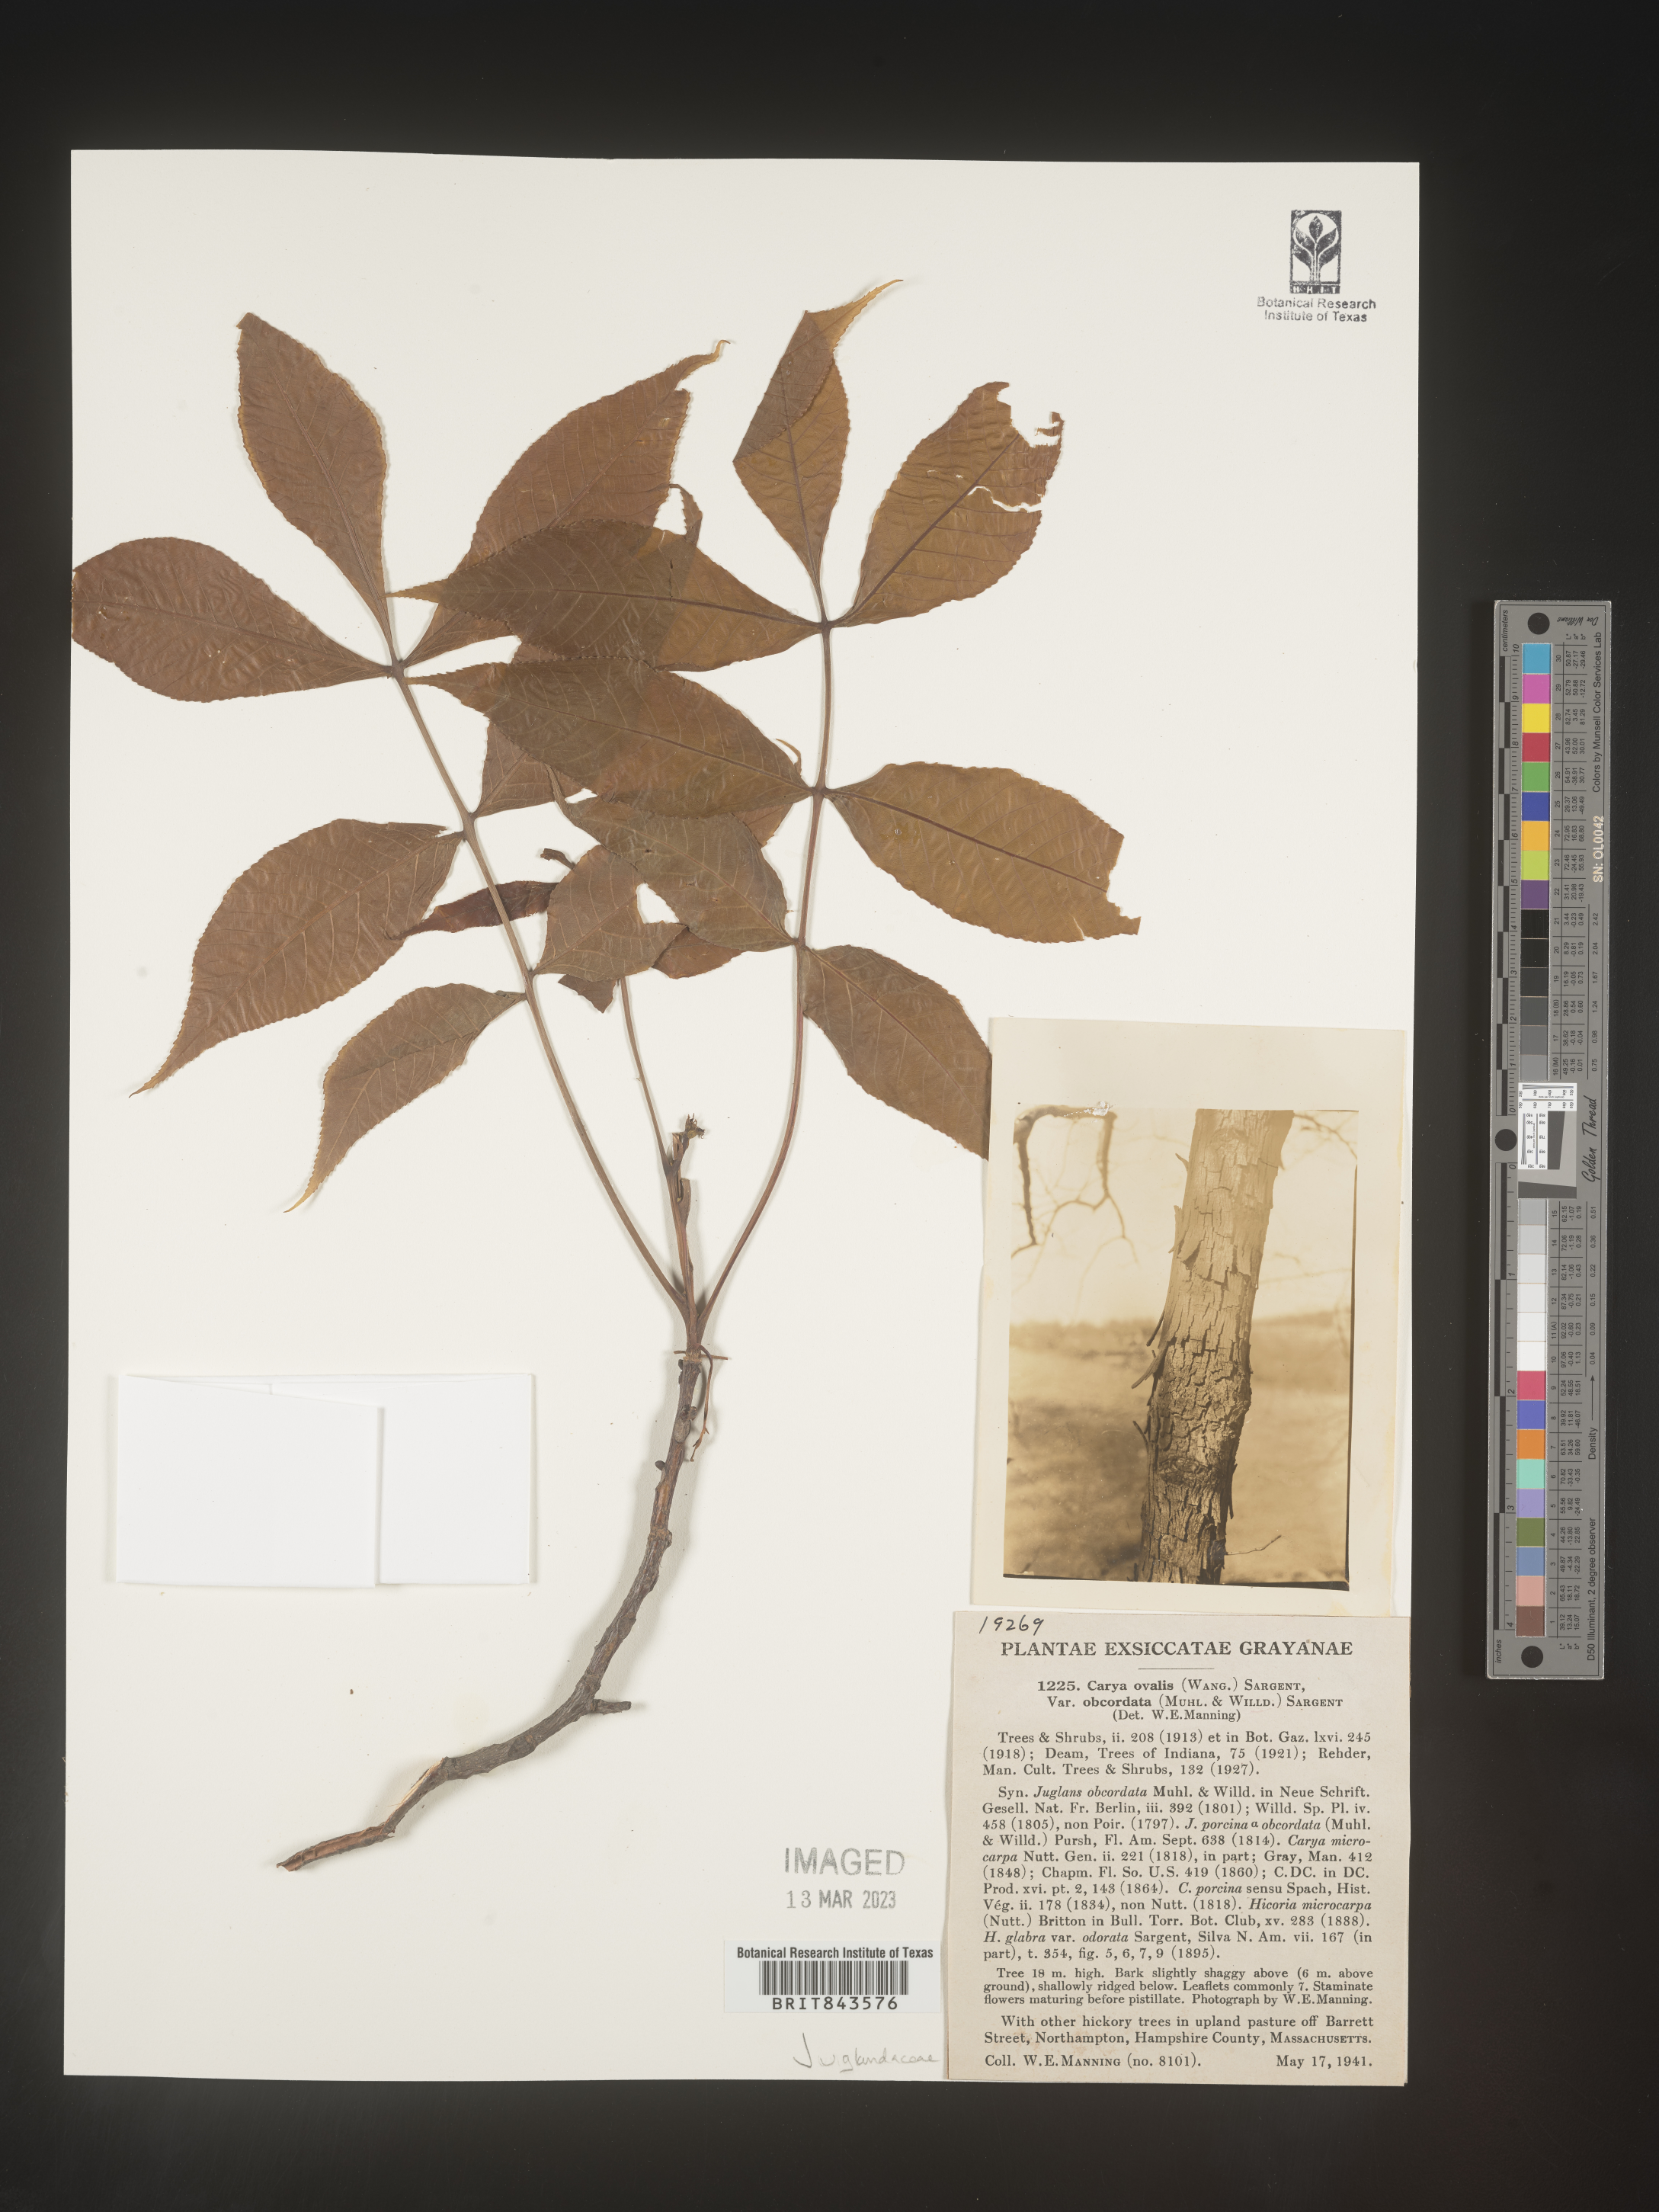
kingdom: Plantae
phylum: Tracheophyta
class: Magnoliopsida
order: Fagales
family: Juglandaceae
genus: Carya
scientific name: Carya ovalis
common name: False shagbark
